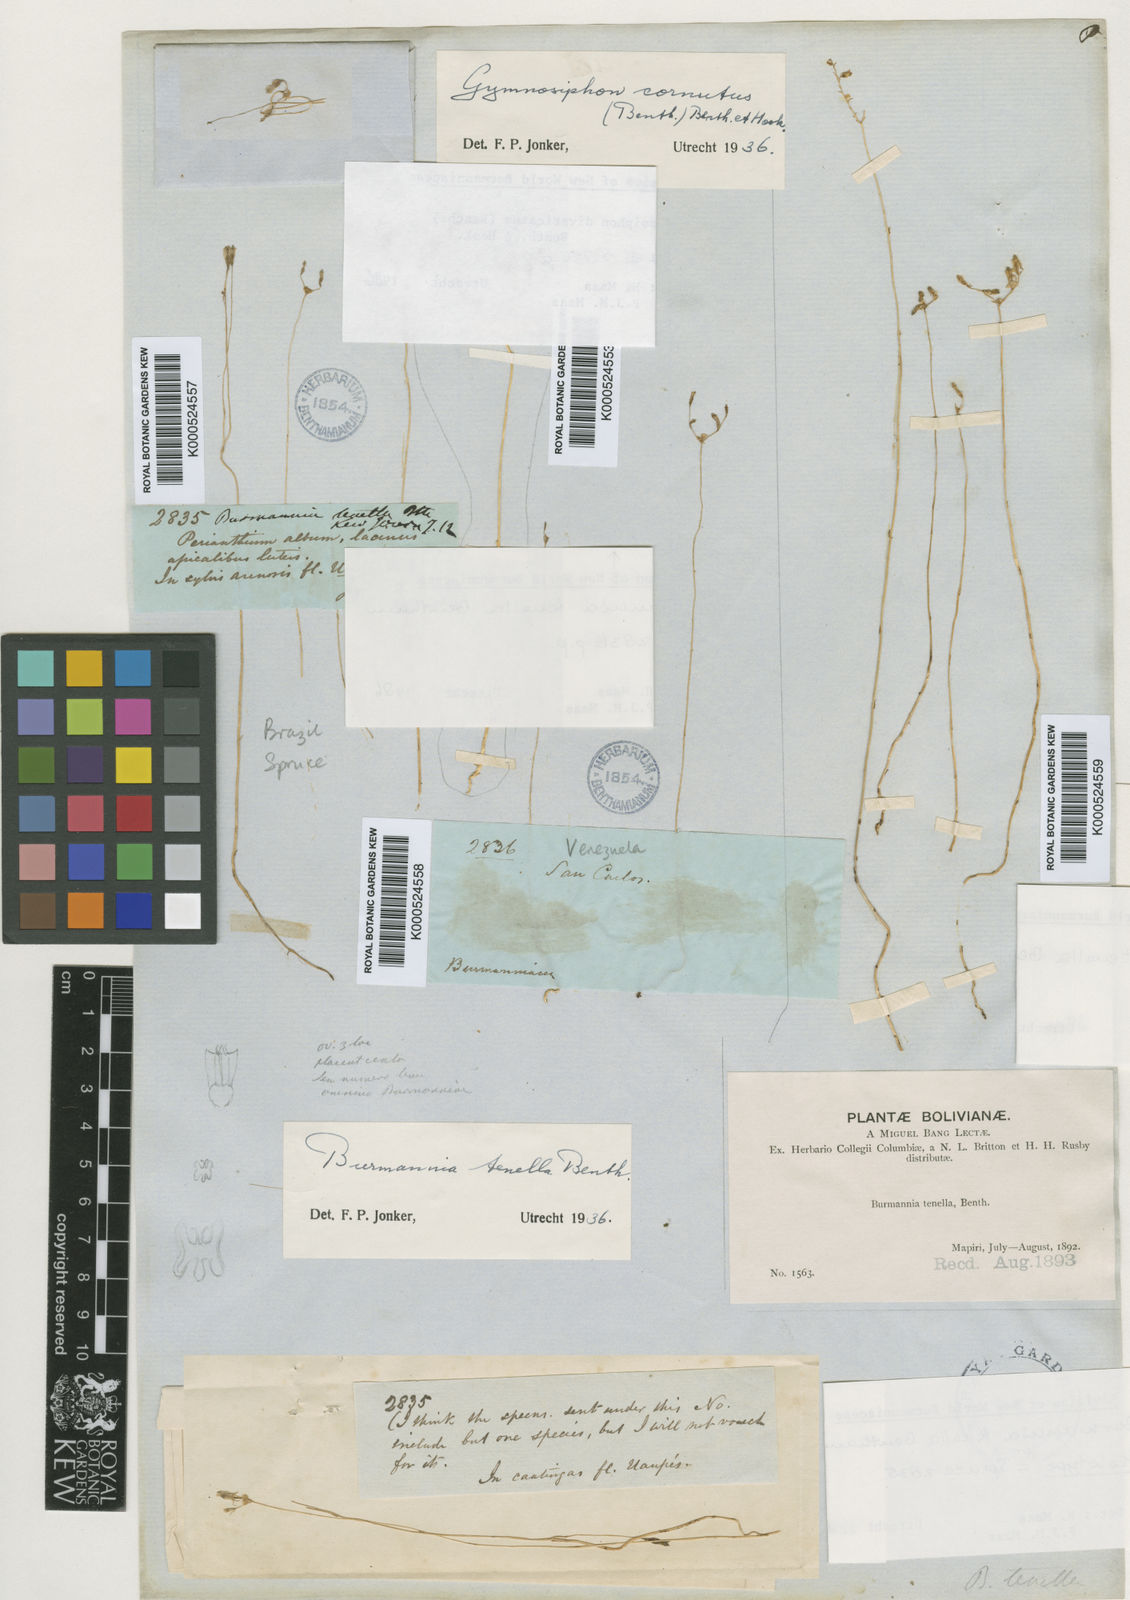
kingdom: Plantae
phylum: Tracheophyta
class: Liliopsida
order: Dioscoreales
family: Burmanniaceae
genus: Burmannia
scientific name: Burmannia tenella
